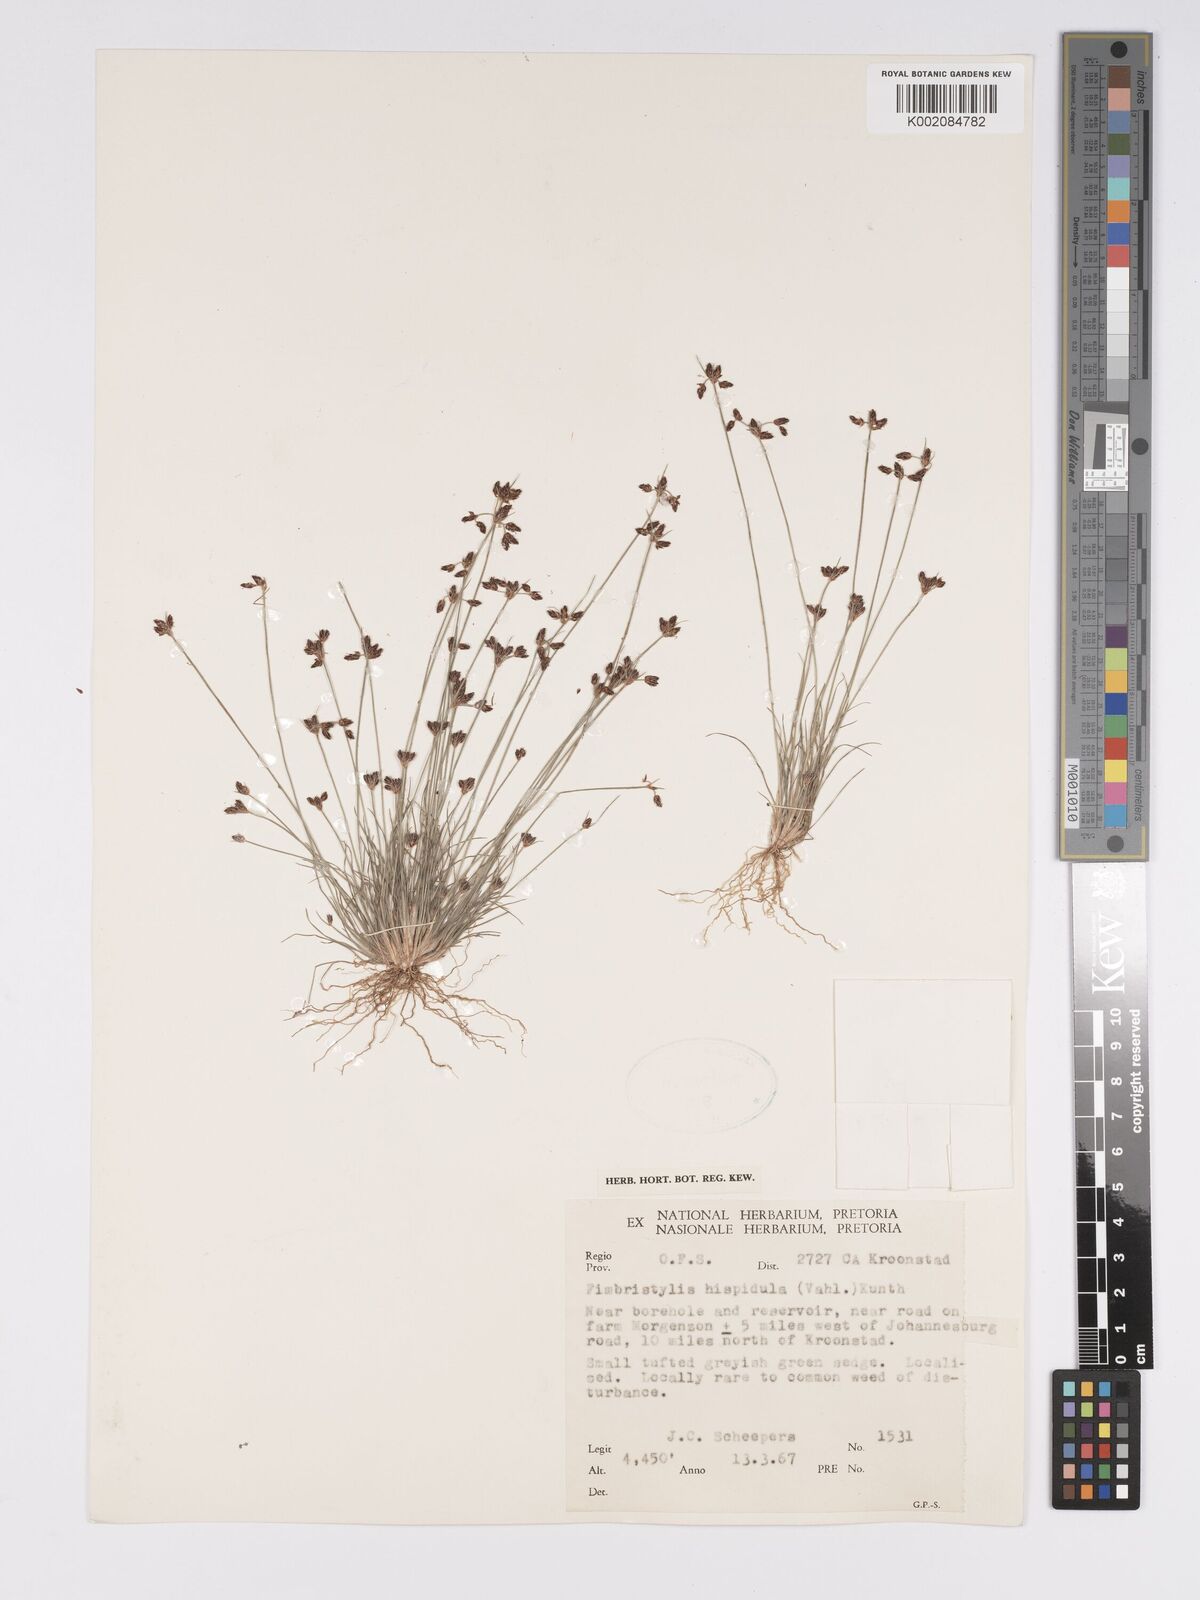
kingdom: Plantae
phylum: Tracheophyta
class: Liliopsida
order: Poales
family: Cyperaceae
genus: Bulbostylis
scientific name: Bulbostylis
